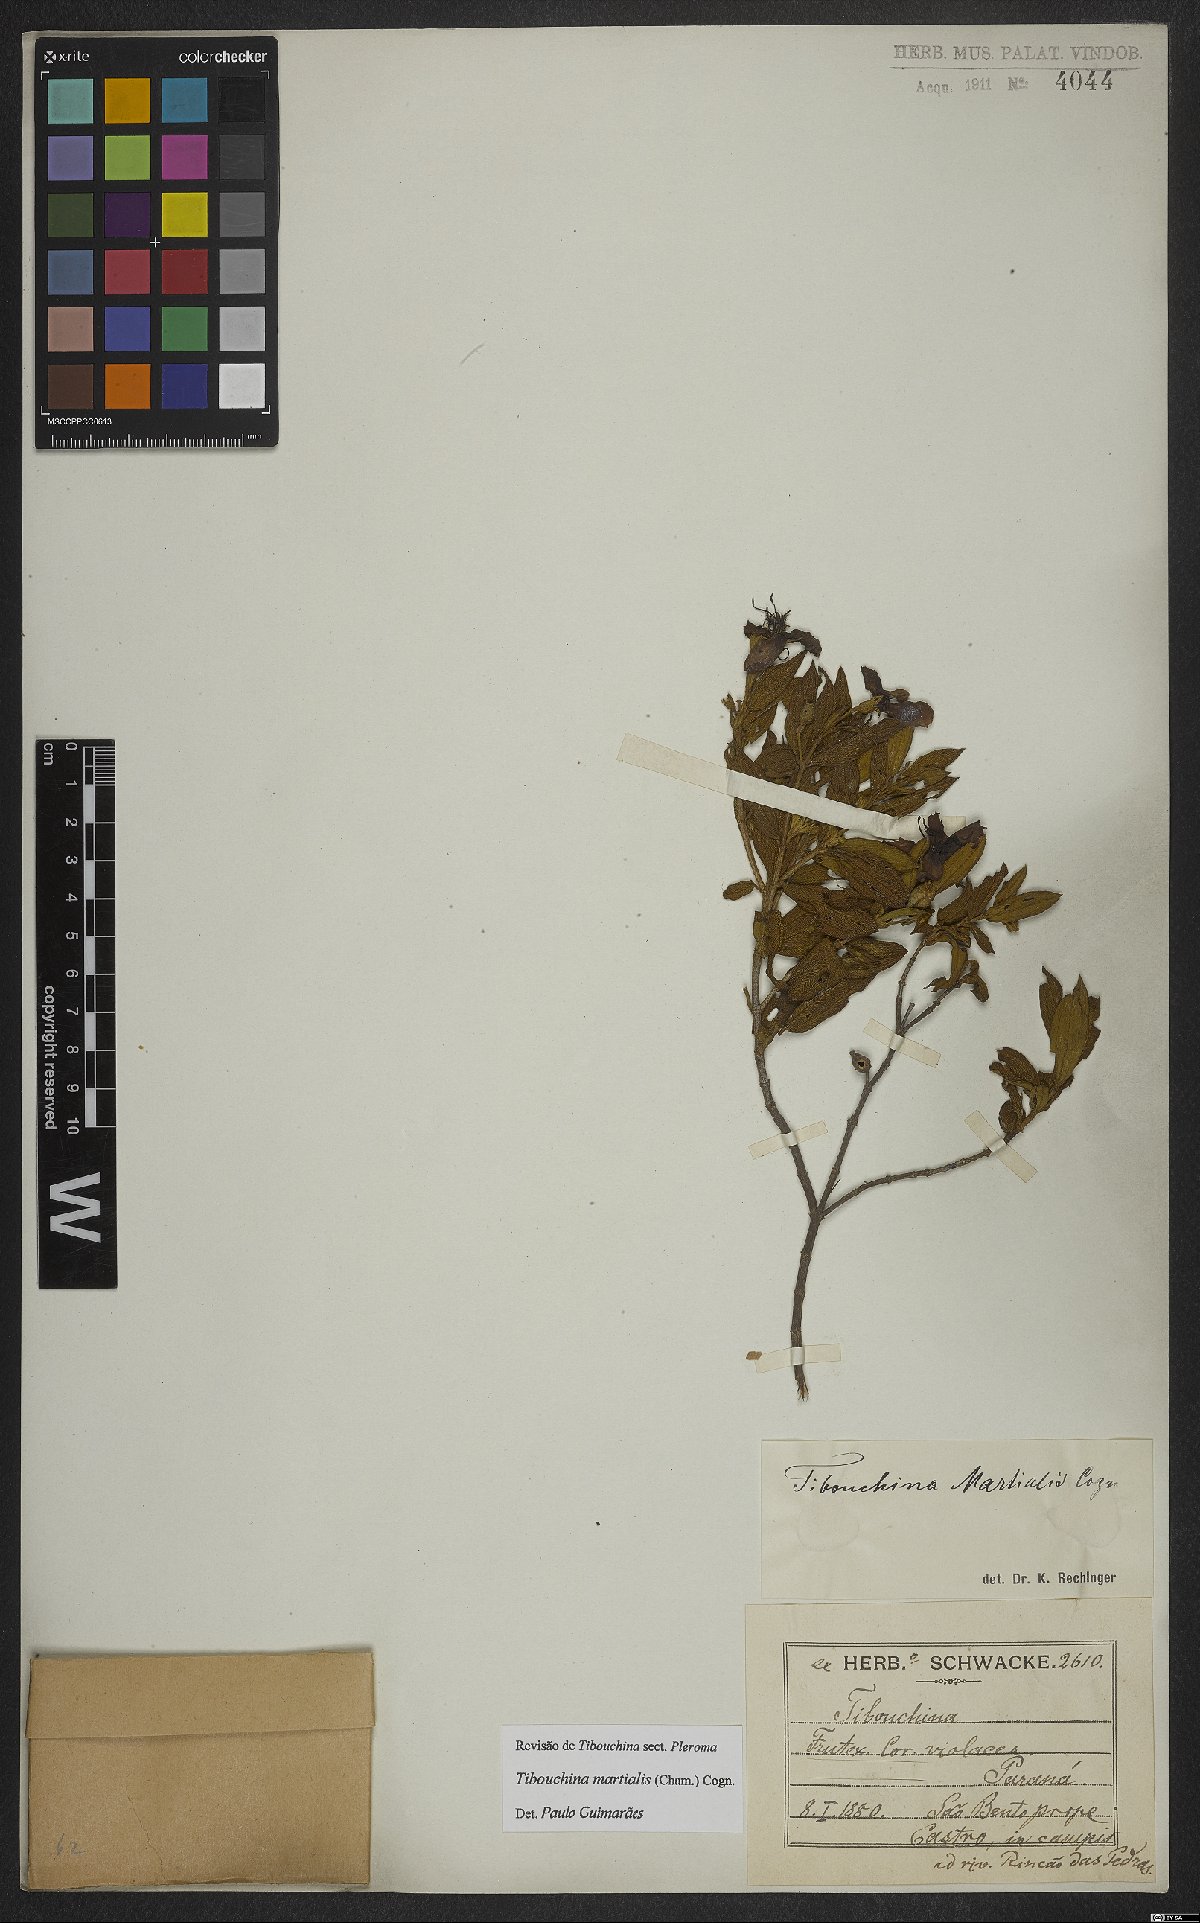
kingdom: Plantae
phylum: Tracheophyta
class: Magnoliopsida
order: Myrtales
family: Melastomataceae
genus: Pleroma
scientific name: Pleroma martiale
